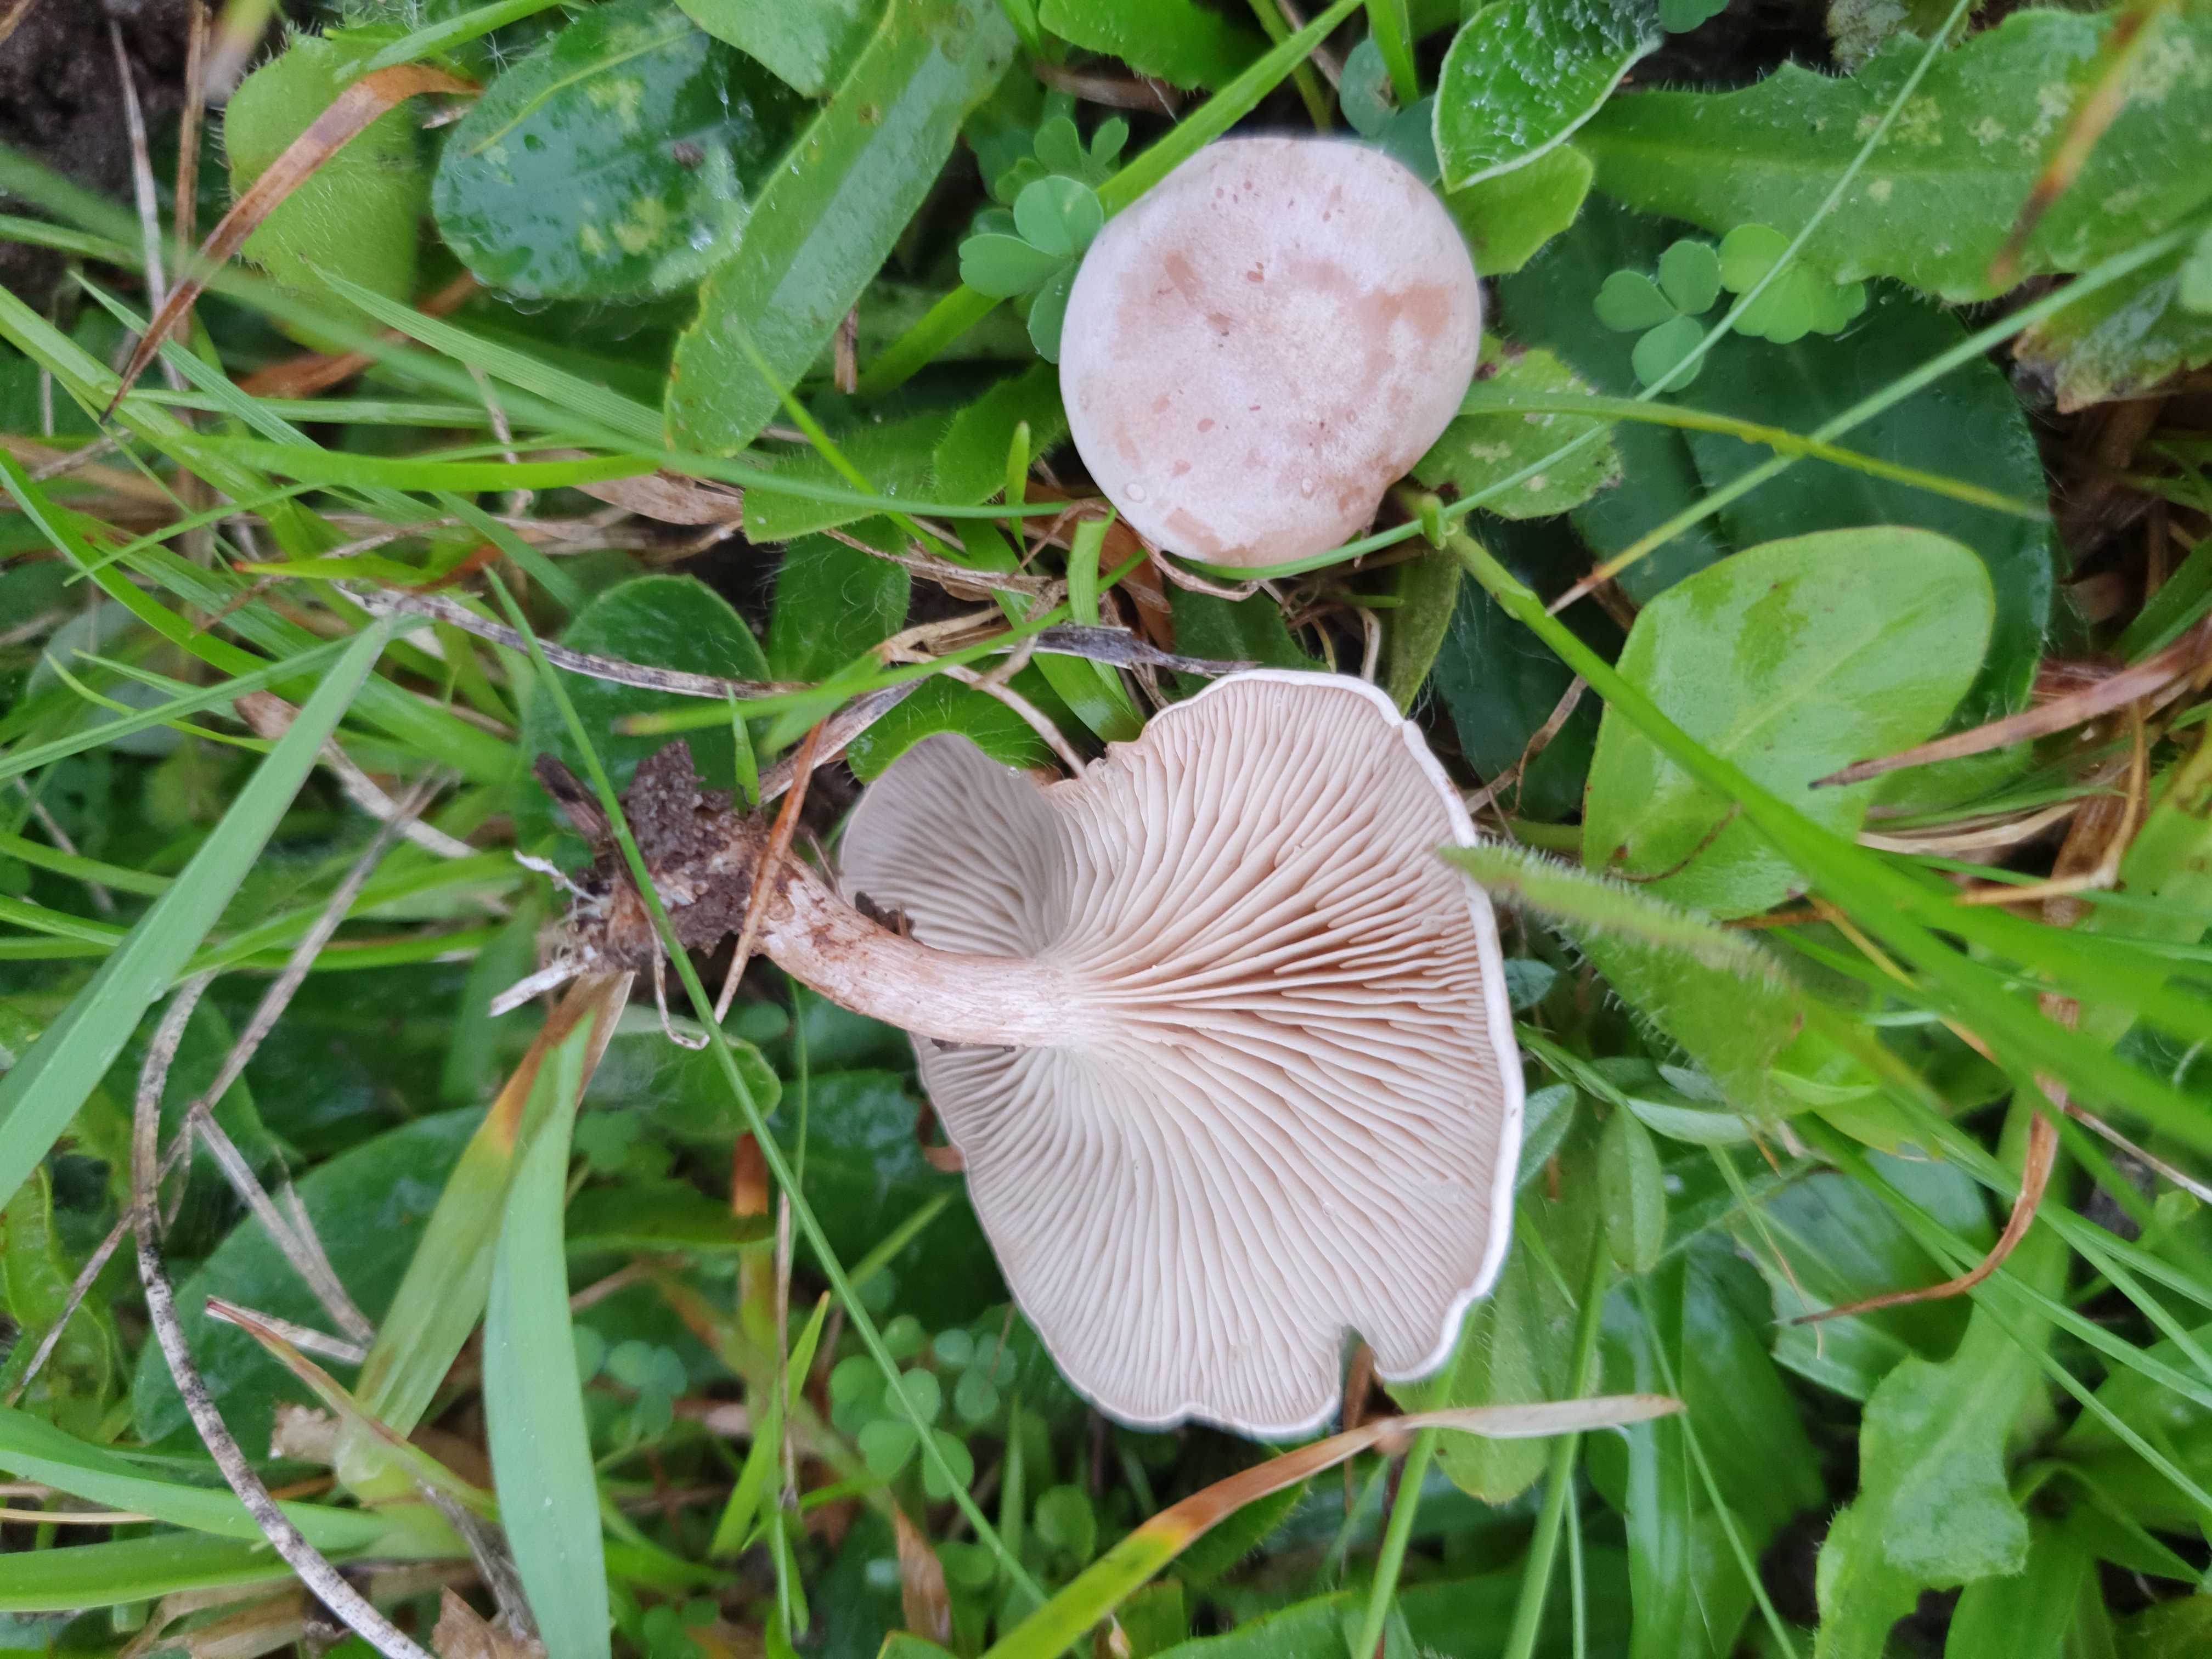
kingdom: Fungi
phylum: Basidiomycota
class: Agaricomycetes
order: Agaricales
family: Tricholomataceae
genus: Clitocybe
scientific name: Clitocybe rivulosa
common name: eng-tragthat
